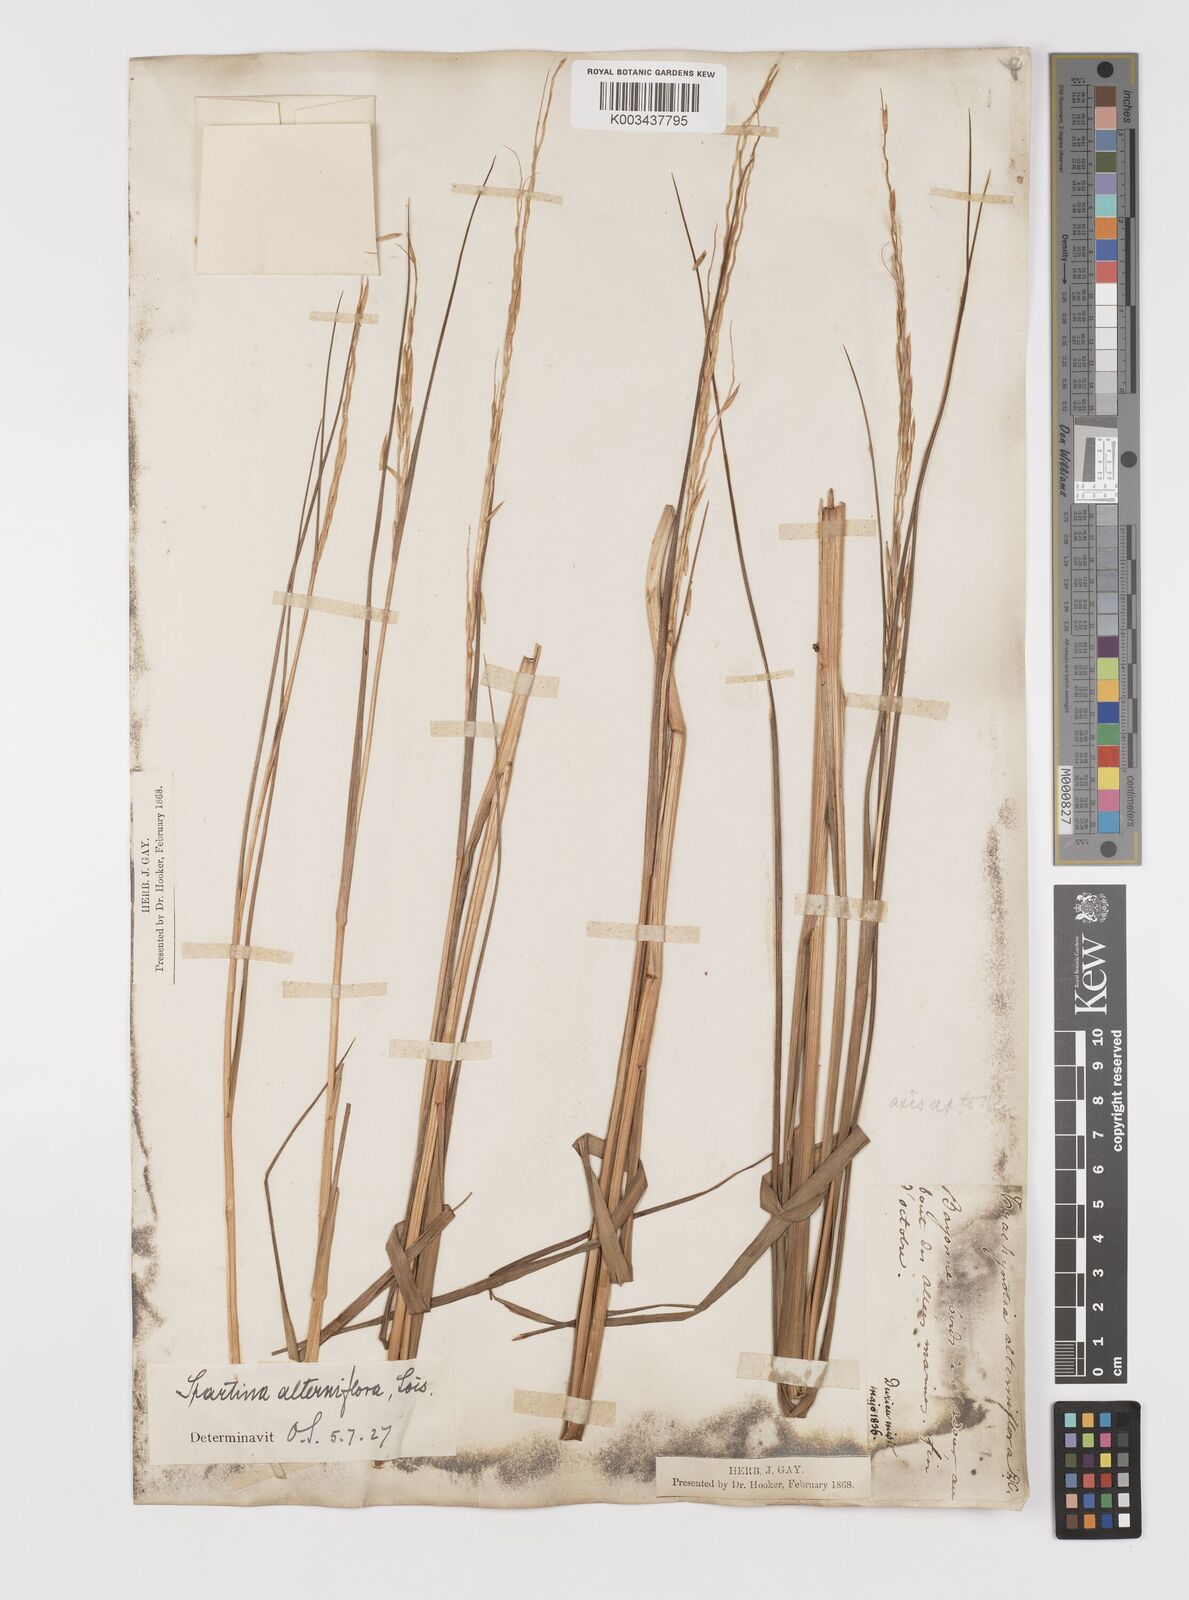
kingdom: Plantae
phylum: Tracheophyta
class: Liliopsida
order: Poales
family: Poaceae
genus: Sporobolus
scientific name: Sporobolus alterniflorus
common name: Atlantic cordgrass
